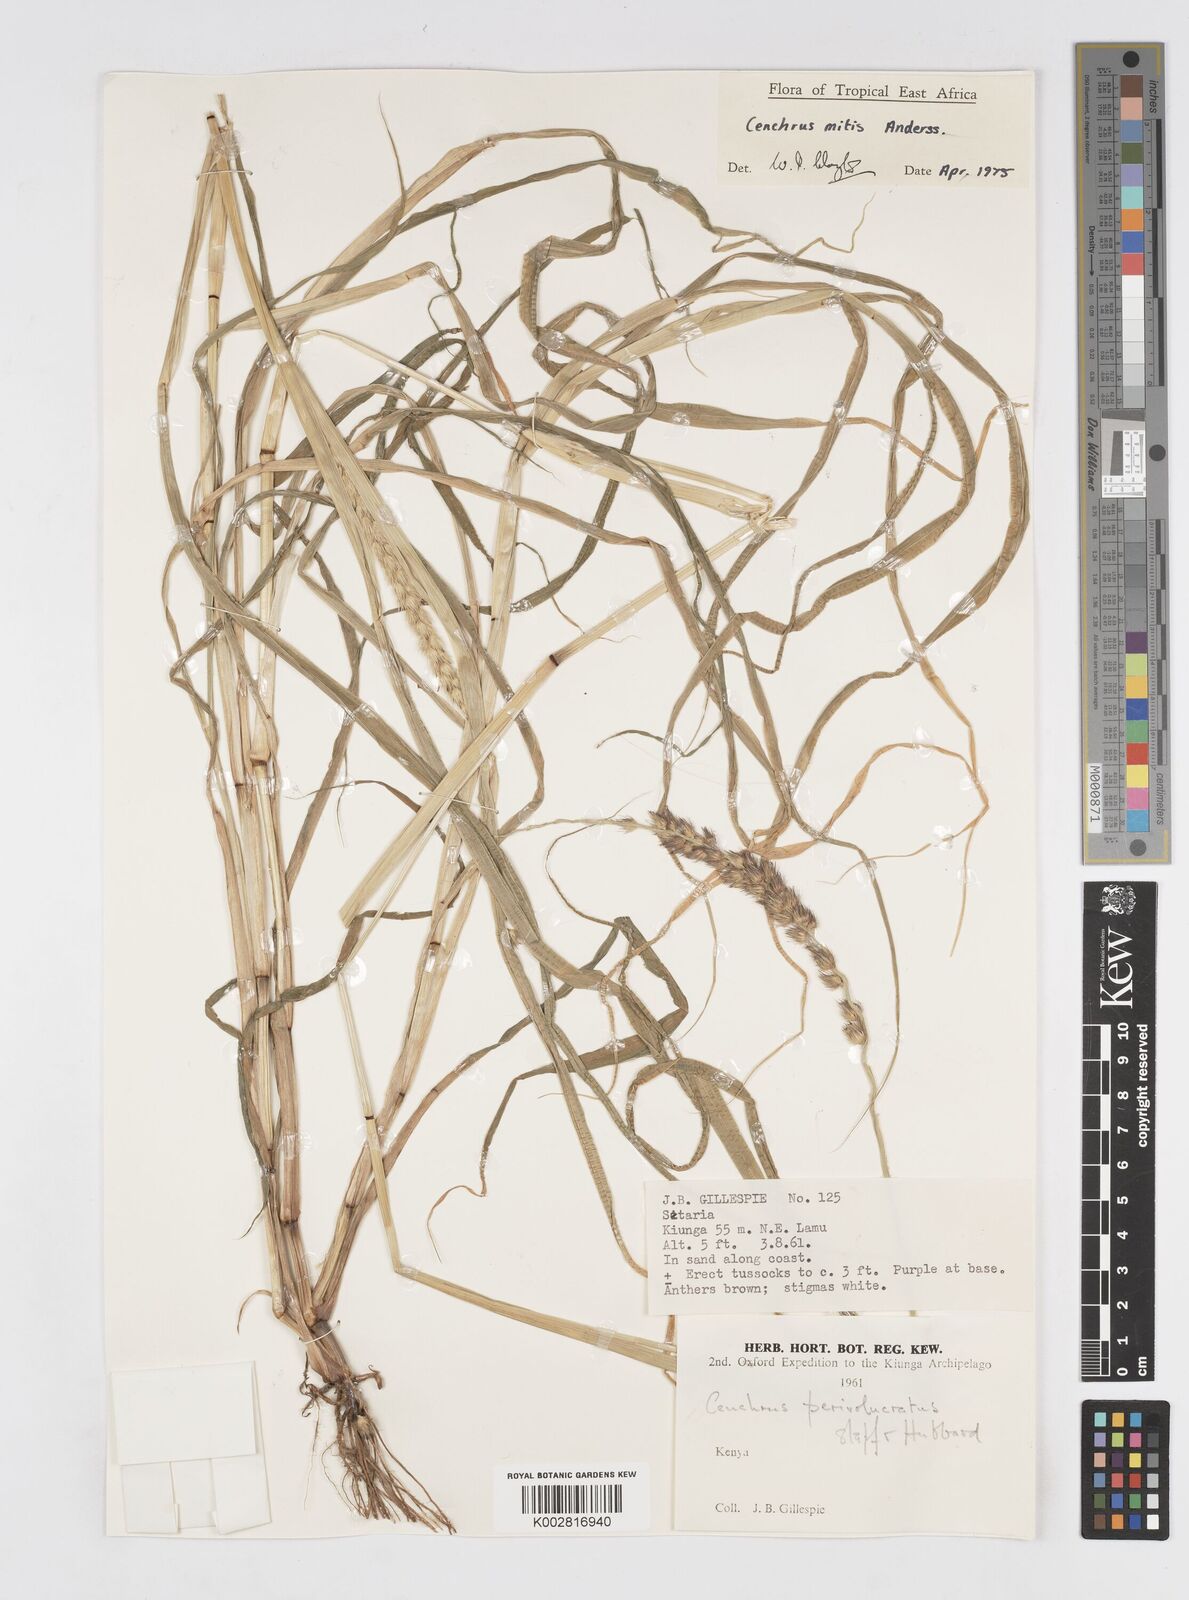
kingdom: Plantae
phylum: Tracheophyta
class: Liliopsida
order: Poales
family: Poaceae
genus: Cenchrus
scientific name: Cenchrus mitis
